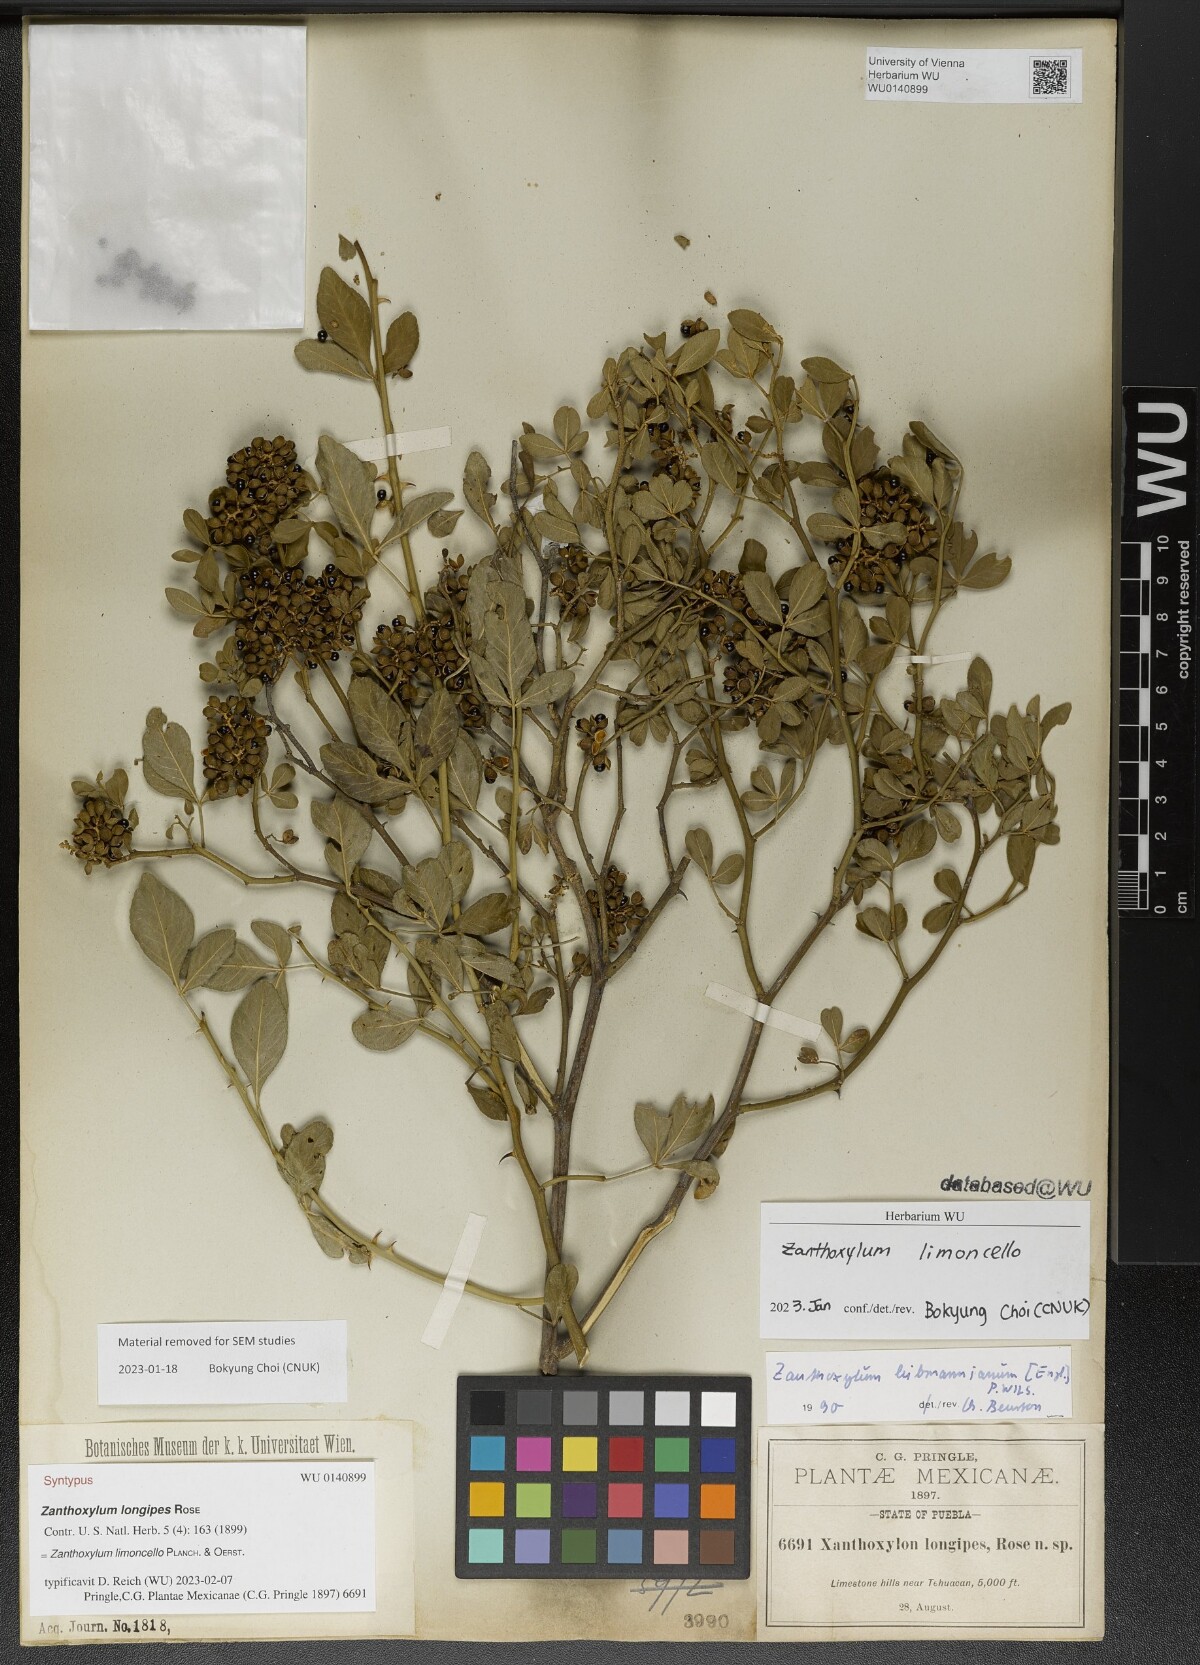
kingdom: Plantae
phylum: Tracheophyta
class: Magnoliopsida
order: Sapindales
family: Rutaceae
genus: Zanthoxylum
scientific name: Zanthoxylum limoncello
